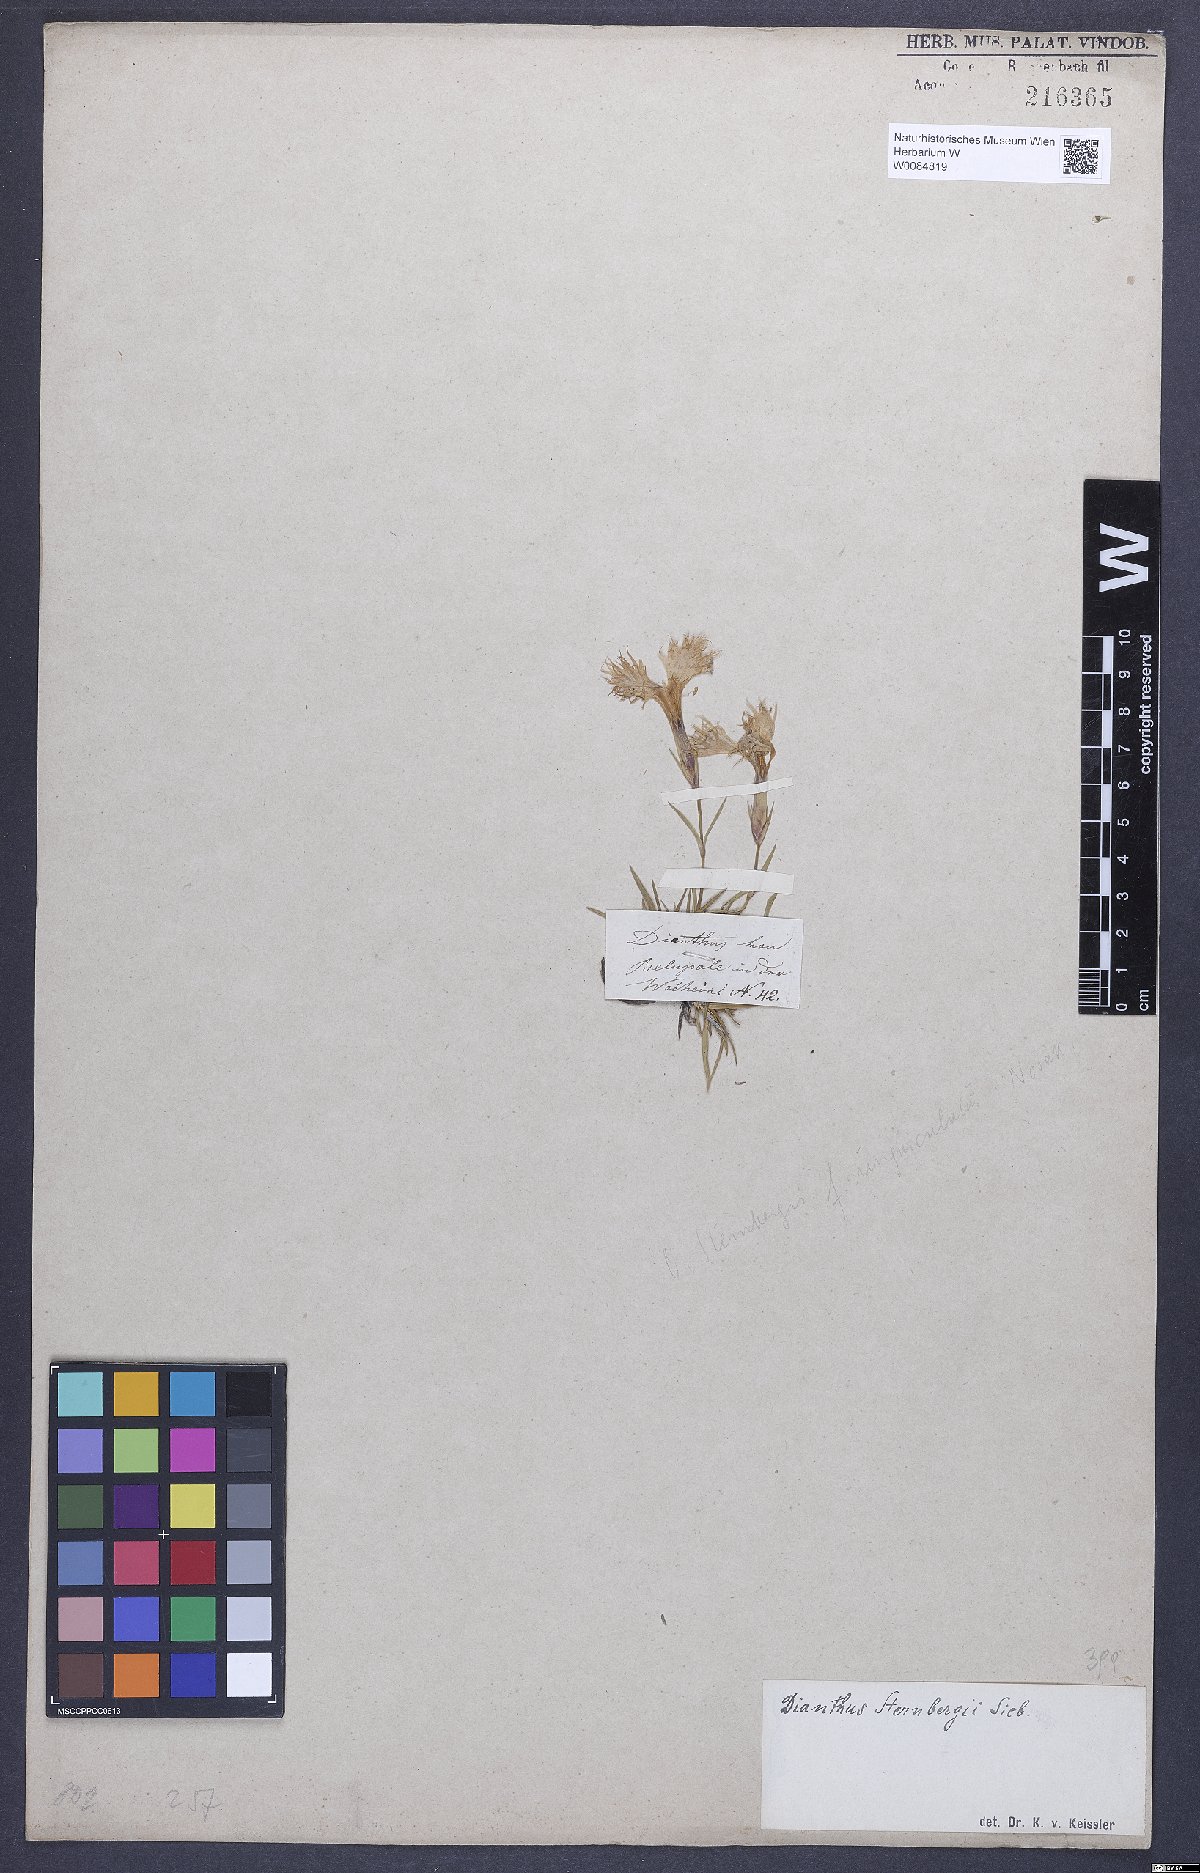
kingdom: Plantae
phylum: Tracheophyta
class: Magnoliopsida
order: Caryophyllales
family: Caryophyllaceae
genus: Dianthus
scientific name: Dianthus monspessulanus
